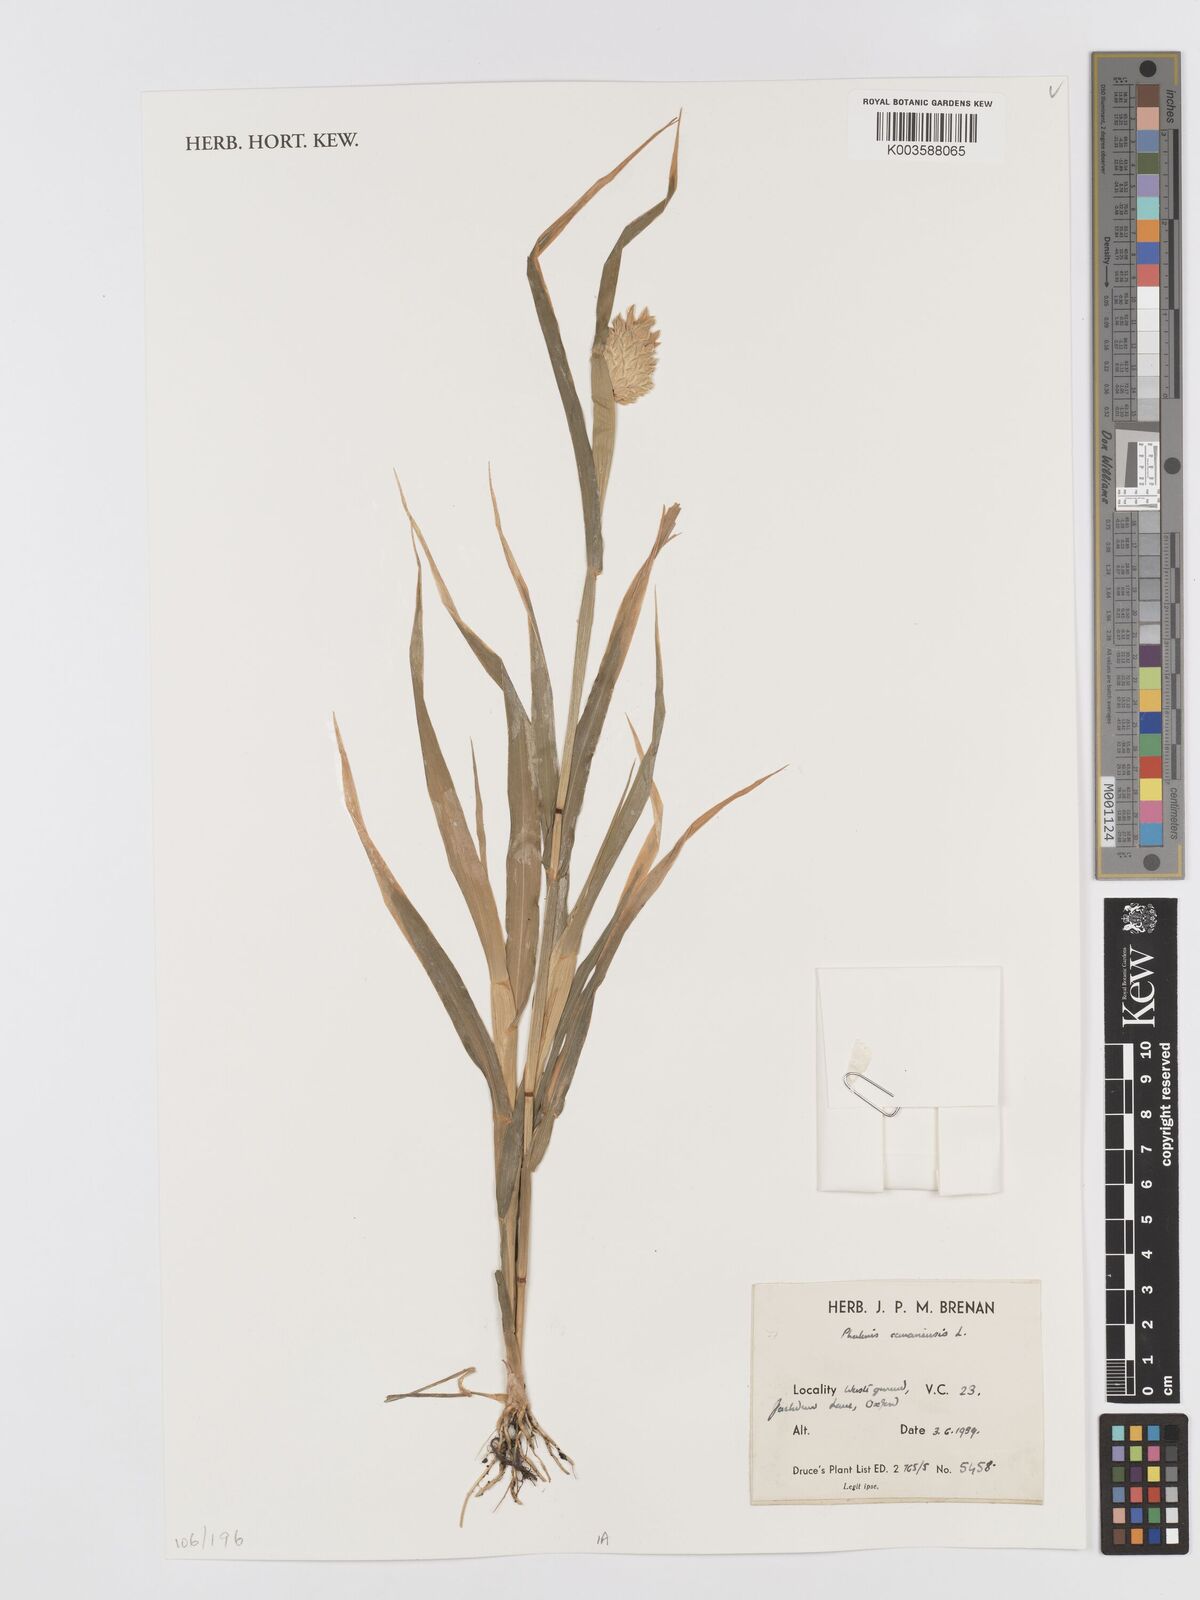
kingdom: Plantae
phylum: Tracheophyta
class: Liliopsida
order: Poales
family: Poaceae
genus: Phalaris
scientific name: Phalaris canariensis
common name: Annual canarygrass
